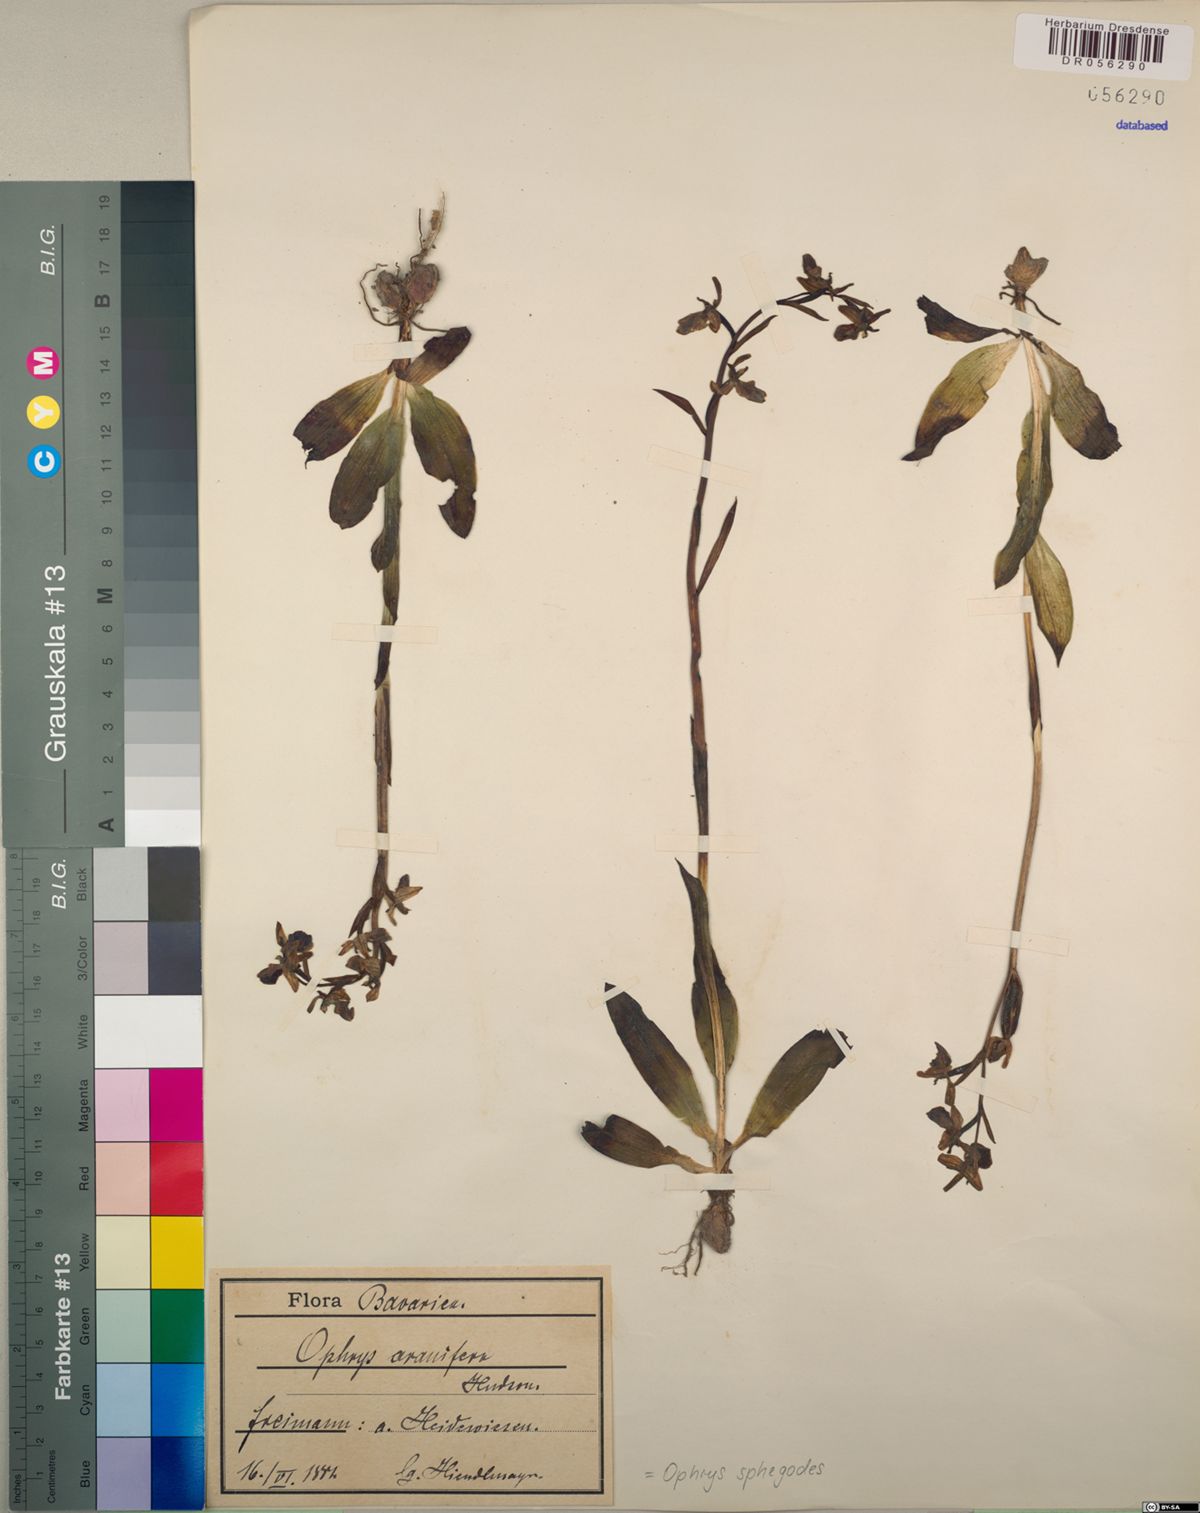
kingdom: Plantae
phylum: Tracheophyta
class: Liliopsida
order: Asparagales
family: Orchidaceae
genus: Ophrys
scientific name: Ophrys sphegodes
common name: Early spider-orchid
